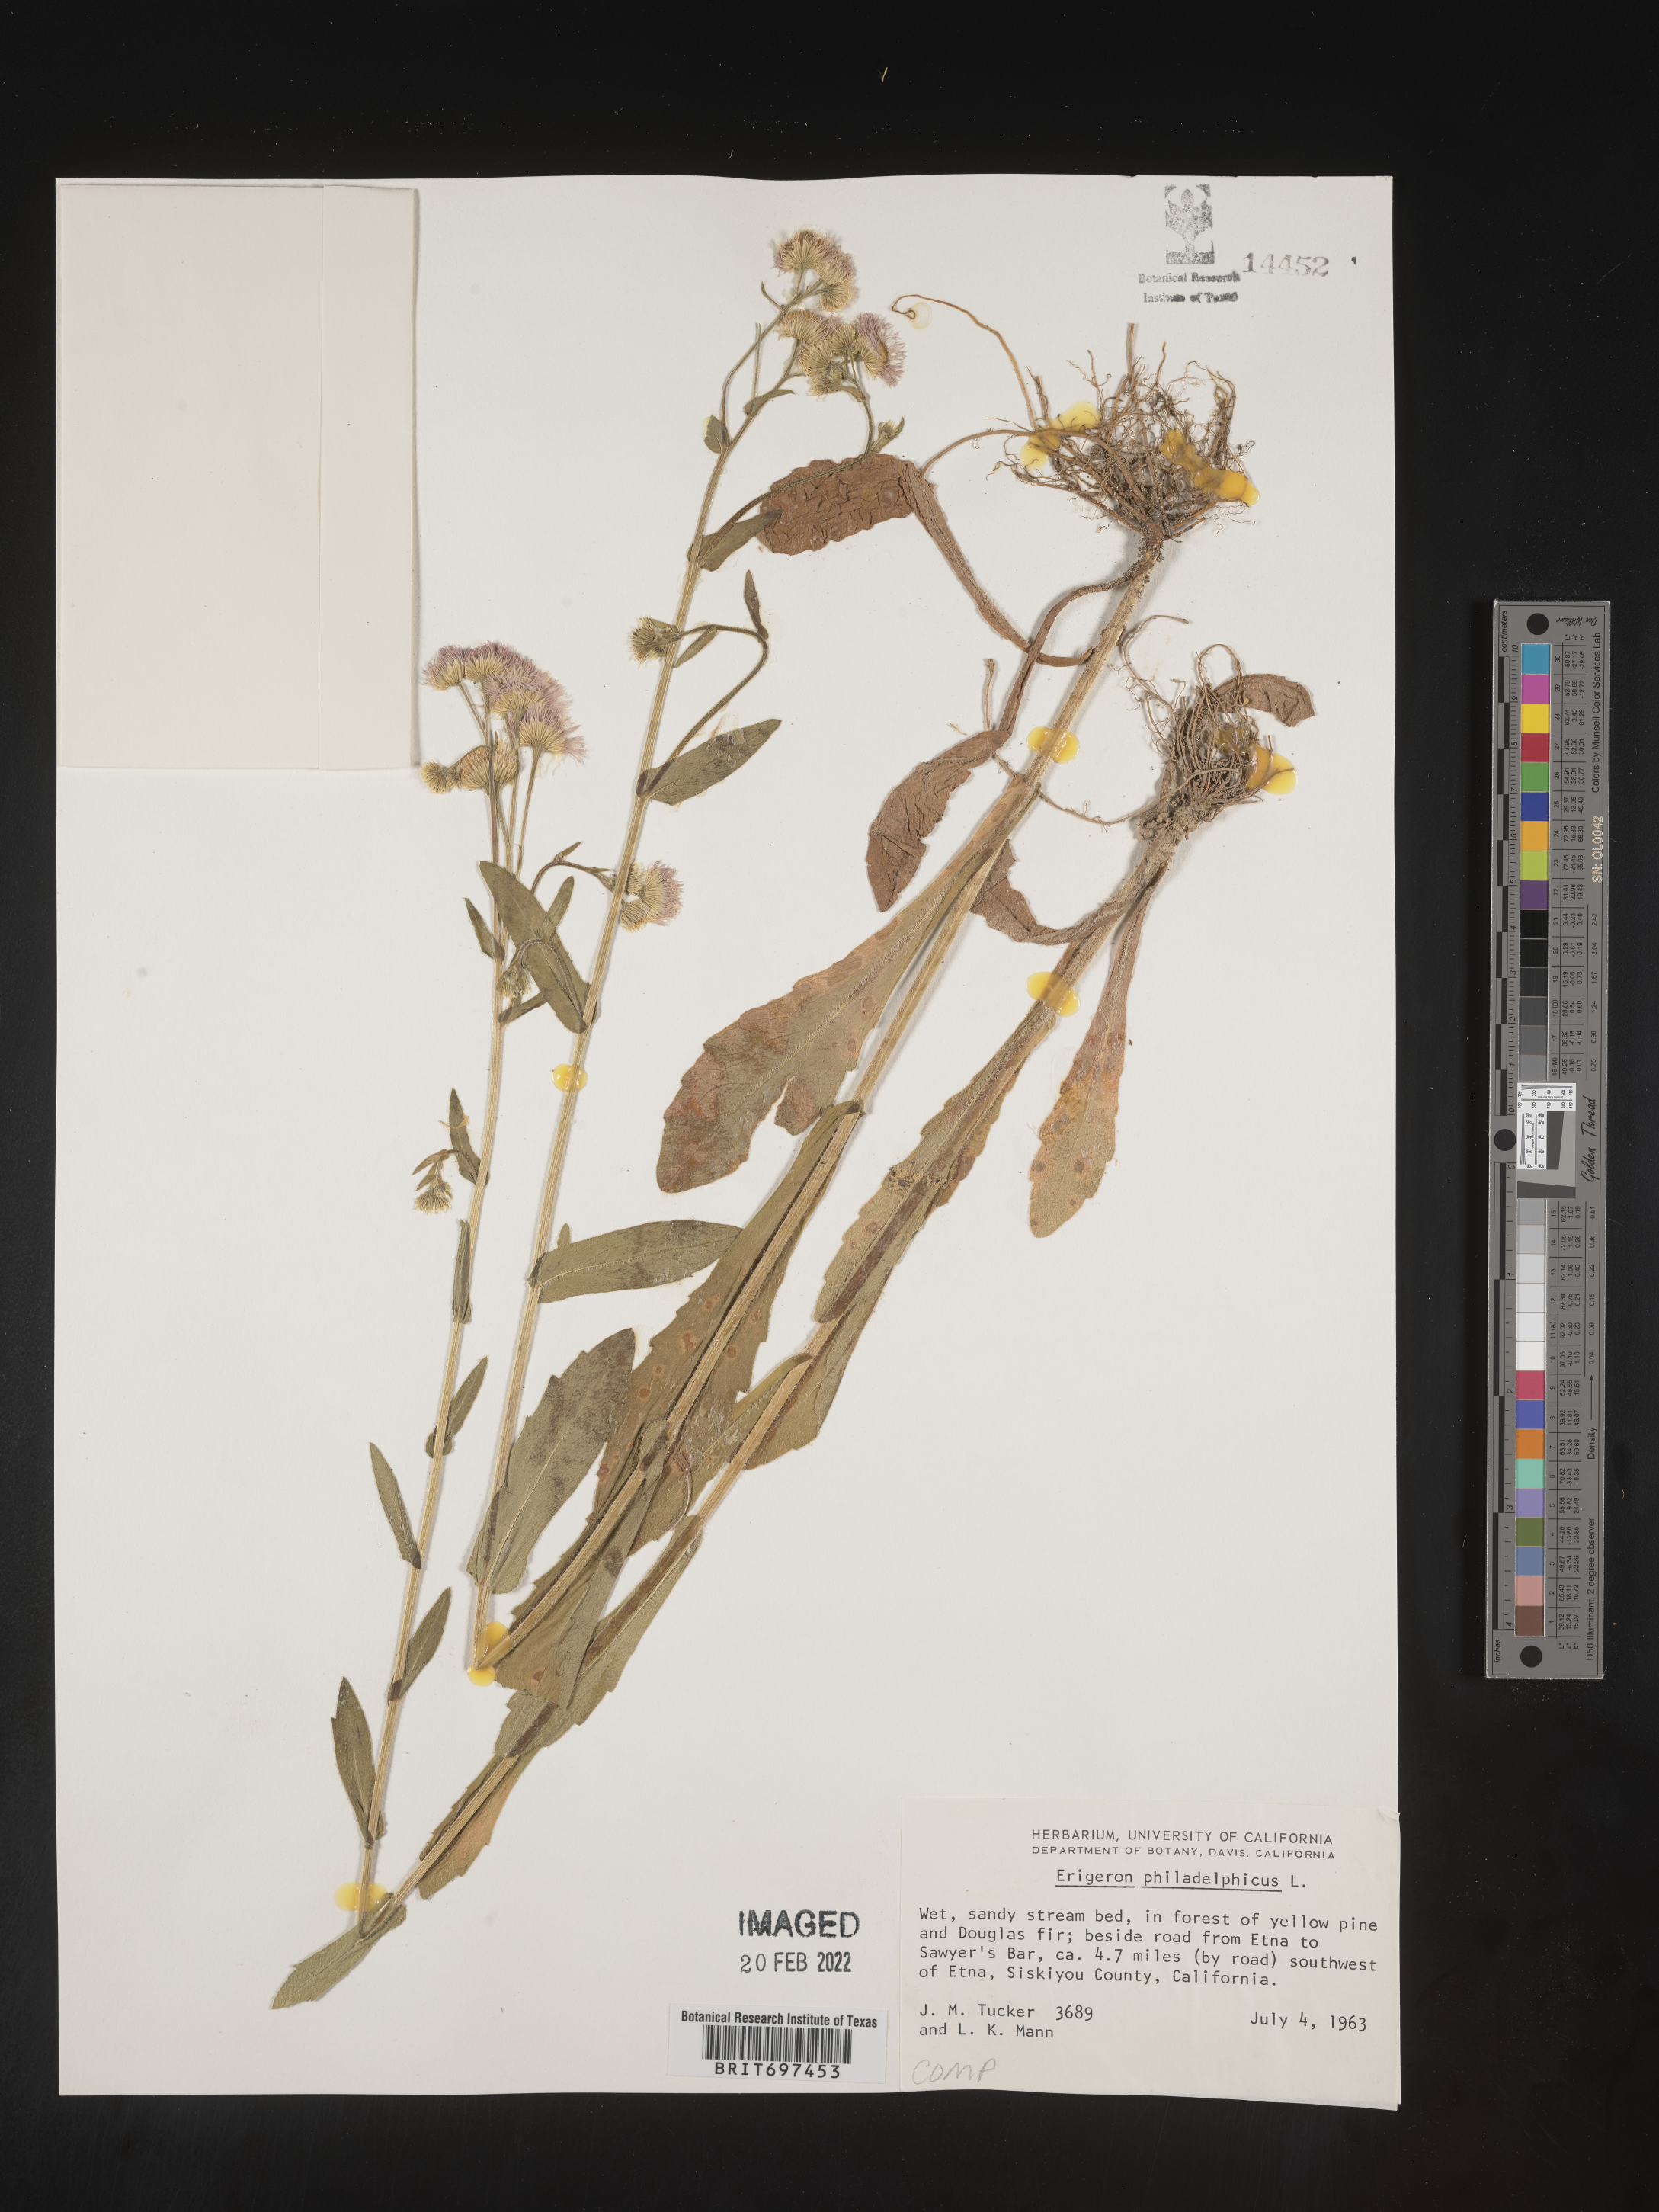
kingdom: Plantae
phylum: Tracheophyta
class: Magnoliopsida
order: Asterales
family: Asteraceae
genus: Erigeron
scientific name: Erigeron philadelphicus
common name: Robin's-plantain
